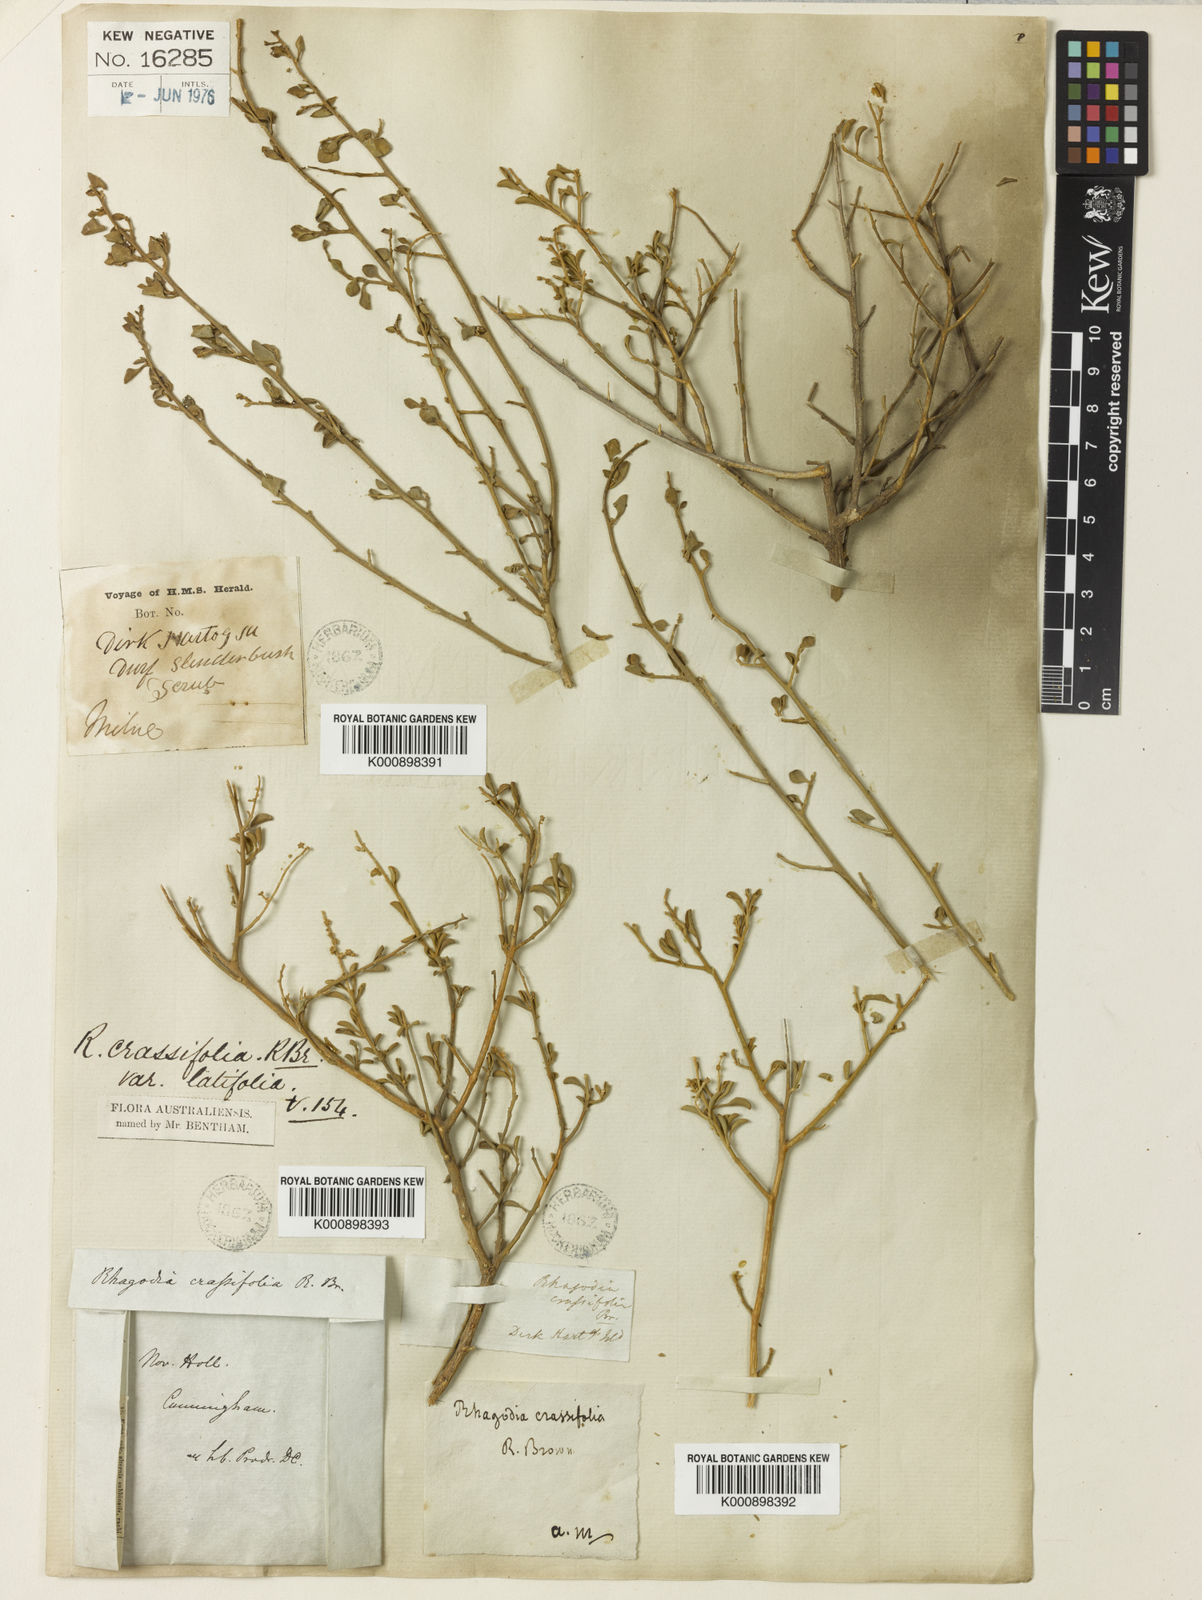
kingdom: Plantae
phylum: Tracheophyta
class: Magnoliopsida
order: Caryophyllales
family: Amaranthaceae
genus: Chenopodium
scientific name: Chenopodium benthamii
